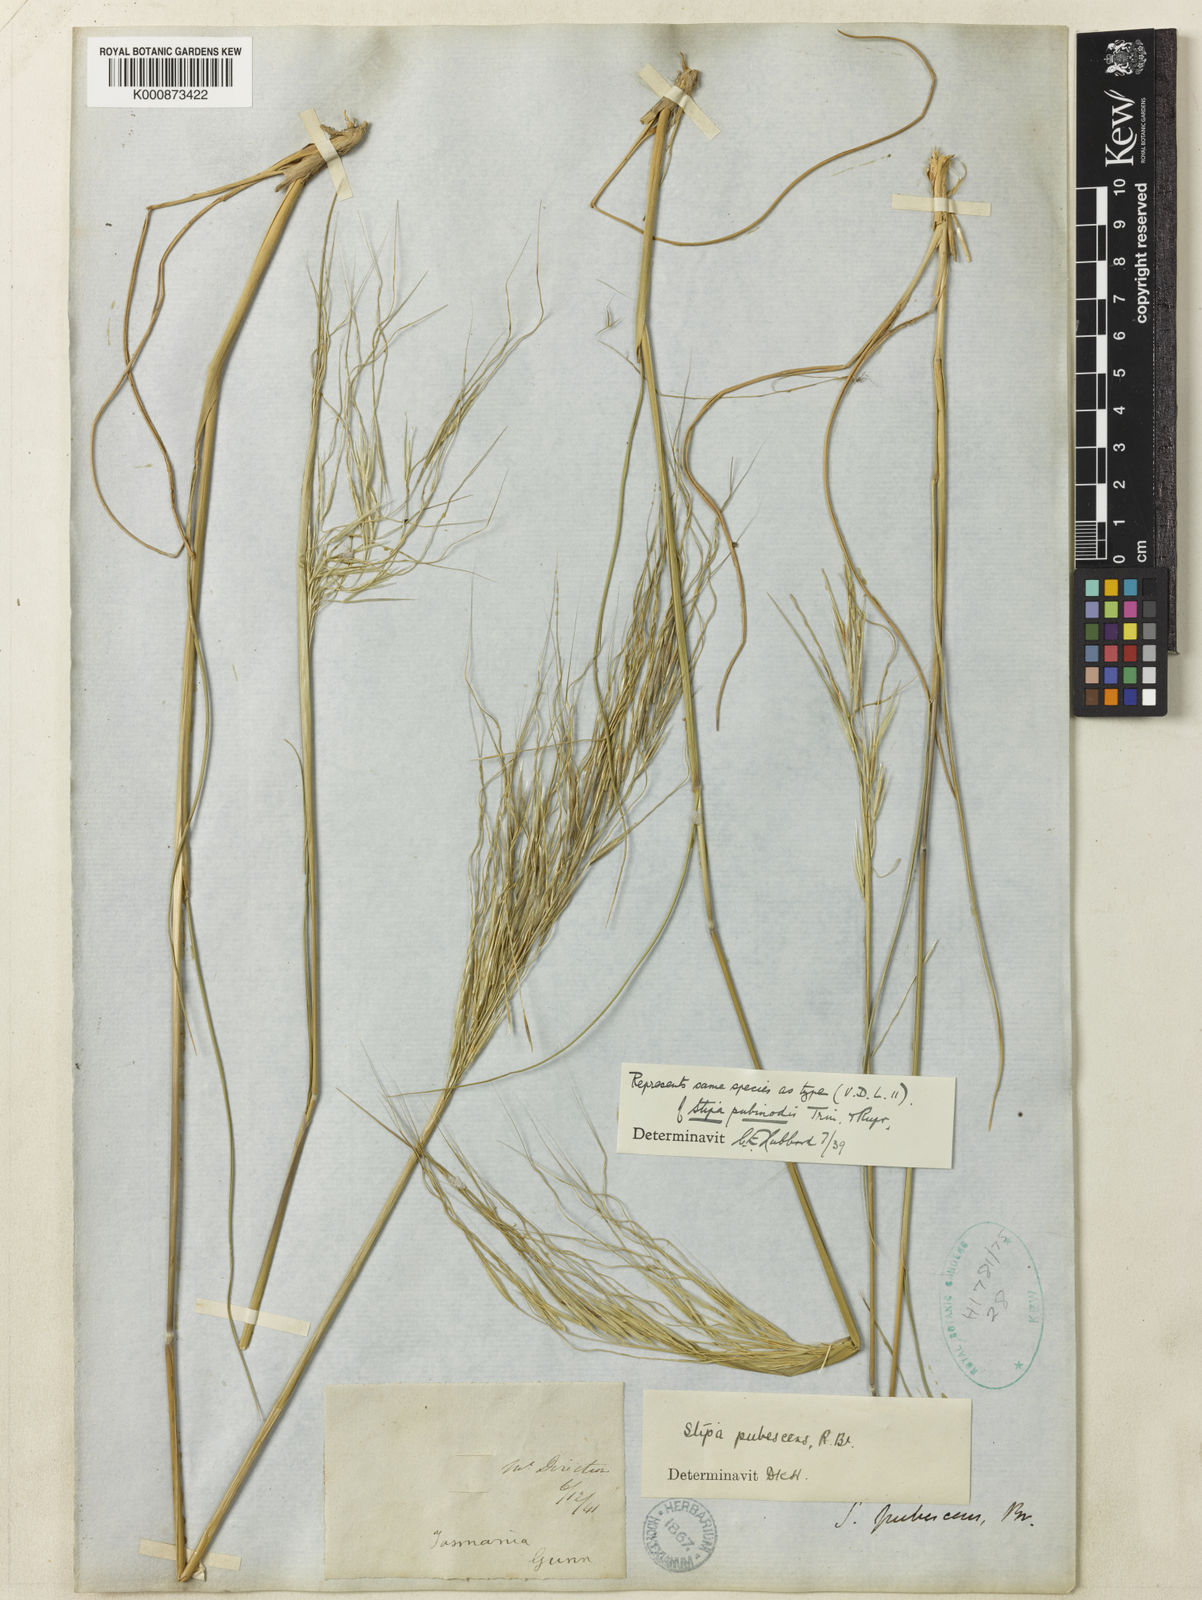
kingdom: Plantae
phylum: Tracheophyta
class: Liliopsida
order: Poales
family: Poaceae
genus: Austrostipa
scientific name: Austrostipa pubinodis
